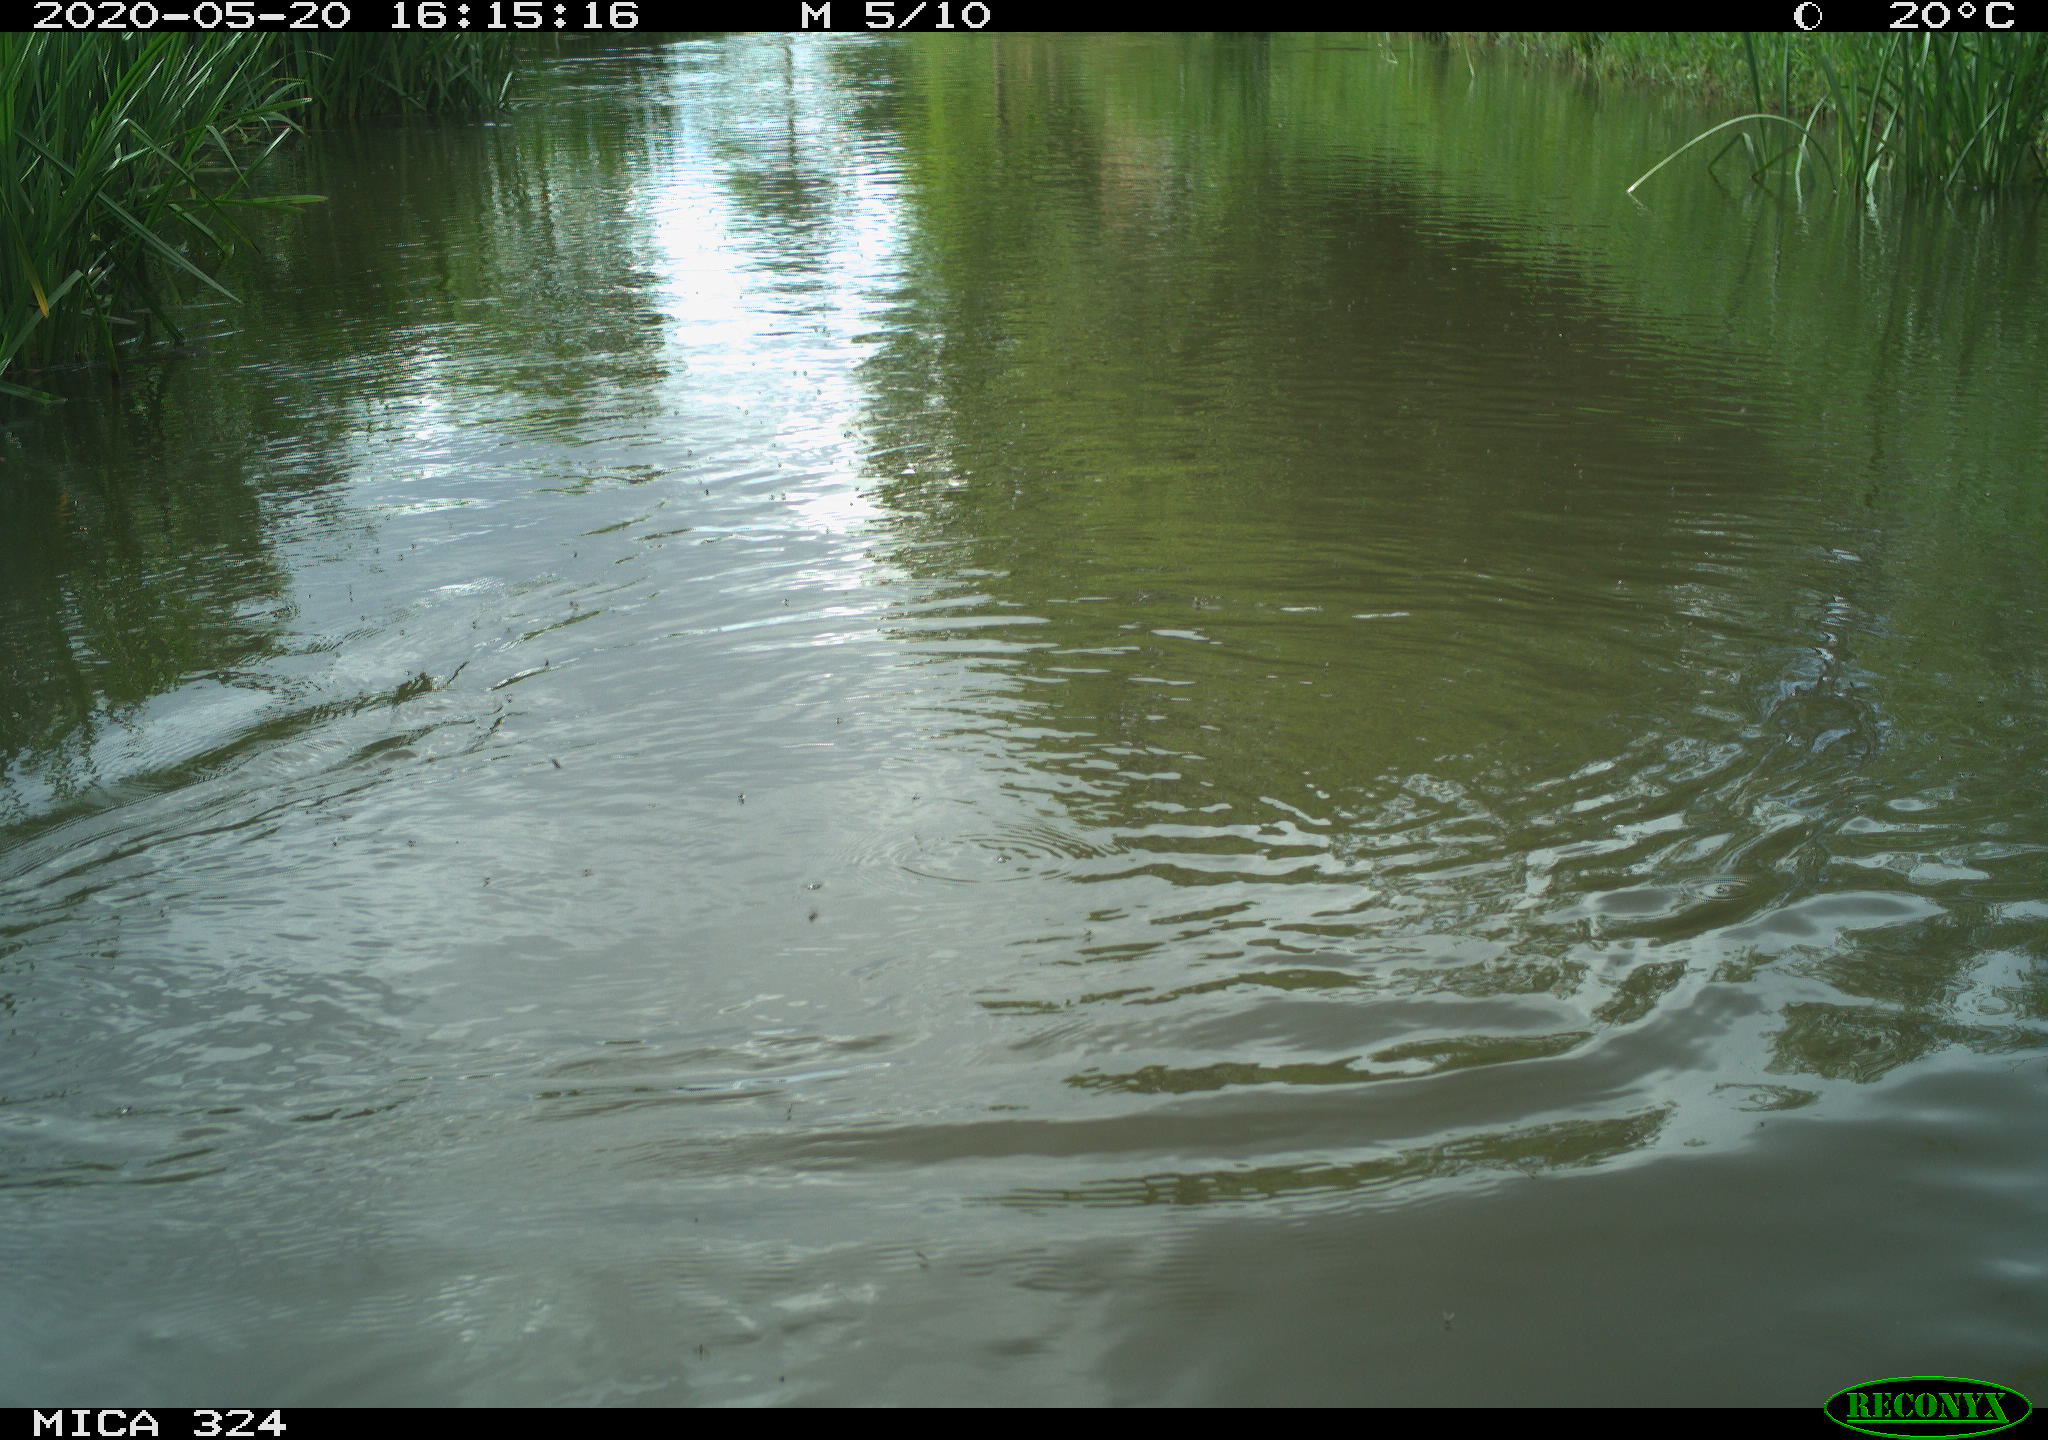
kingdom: Animalia
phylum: Chordata
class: Aves
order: Gruiformes
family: Rallidae
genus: Gallinula
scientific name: Gallinula chloropus
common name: Common moorhen
